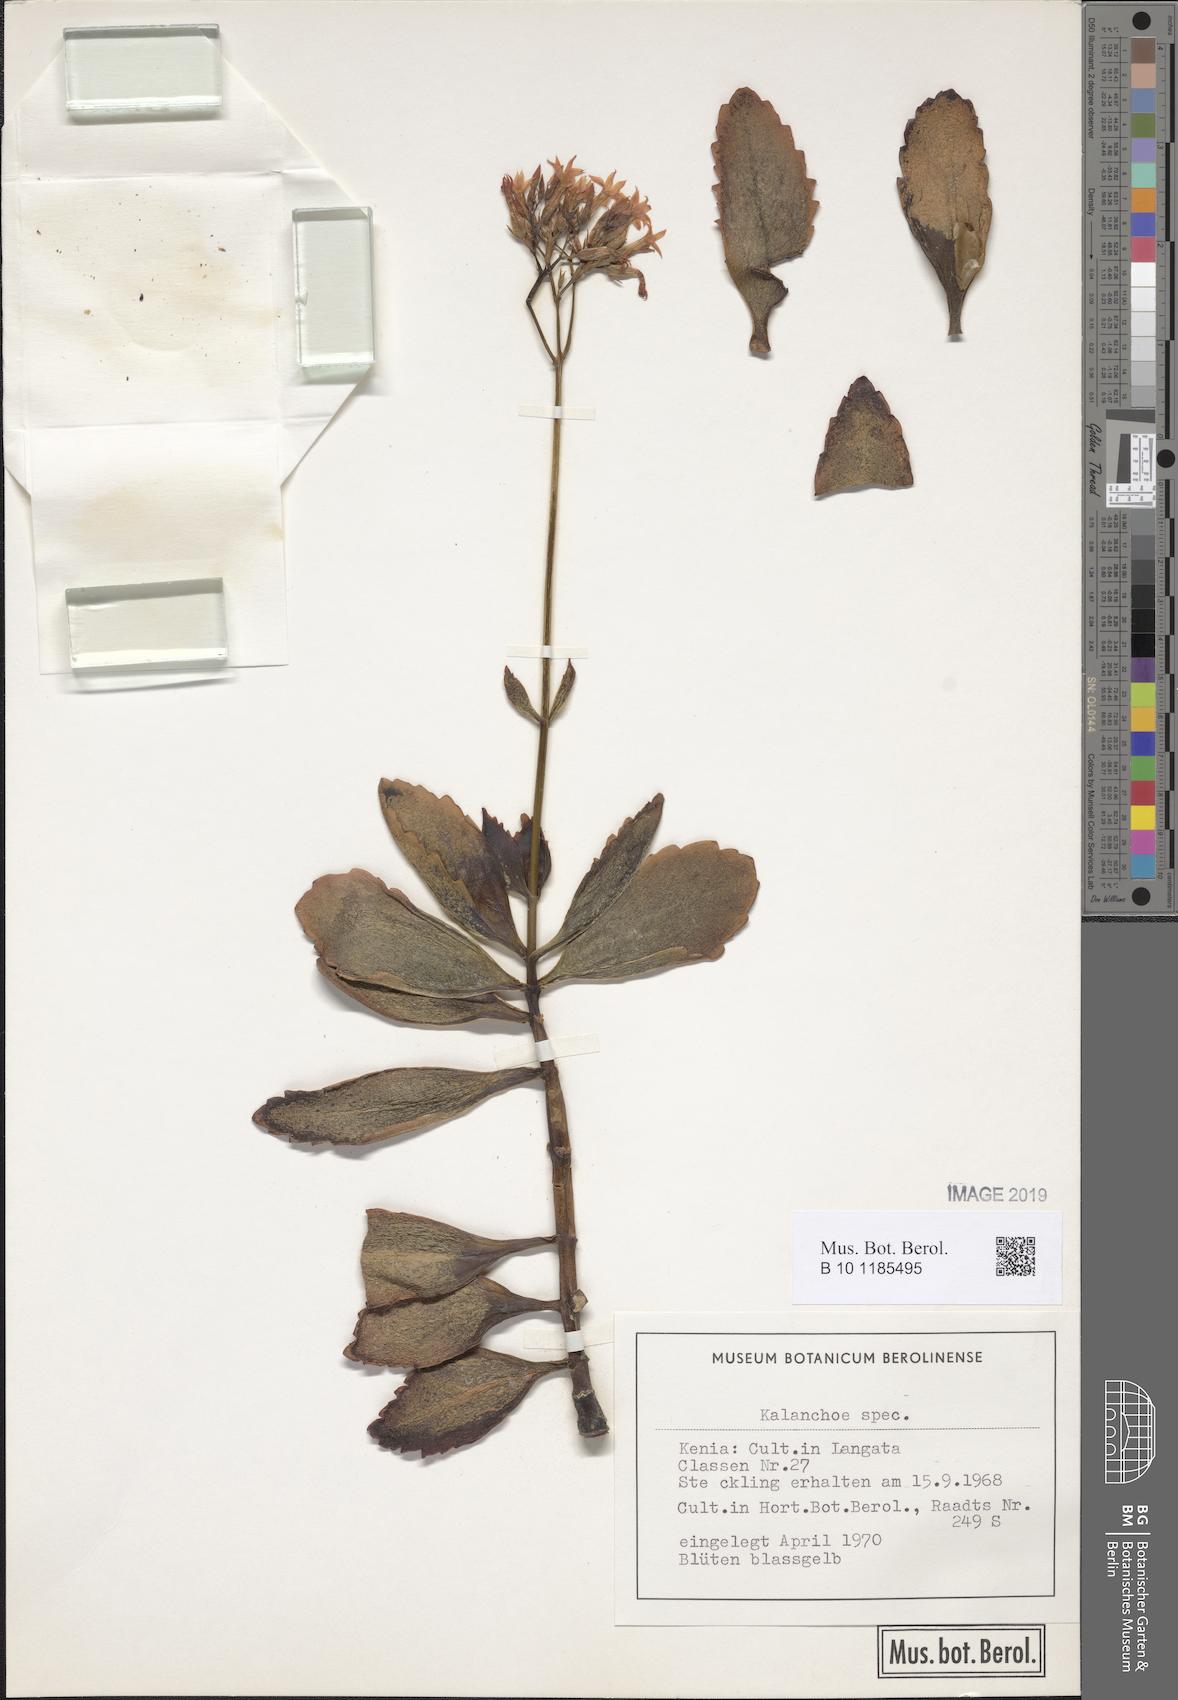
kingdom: Plantae
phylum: Tracheophyta
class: Magnoliopsida
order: Saxifragales
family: Crassulaceae
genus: Kalanchoe
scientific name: Kalanchoe
